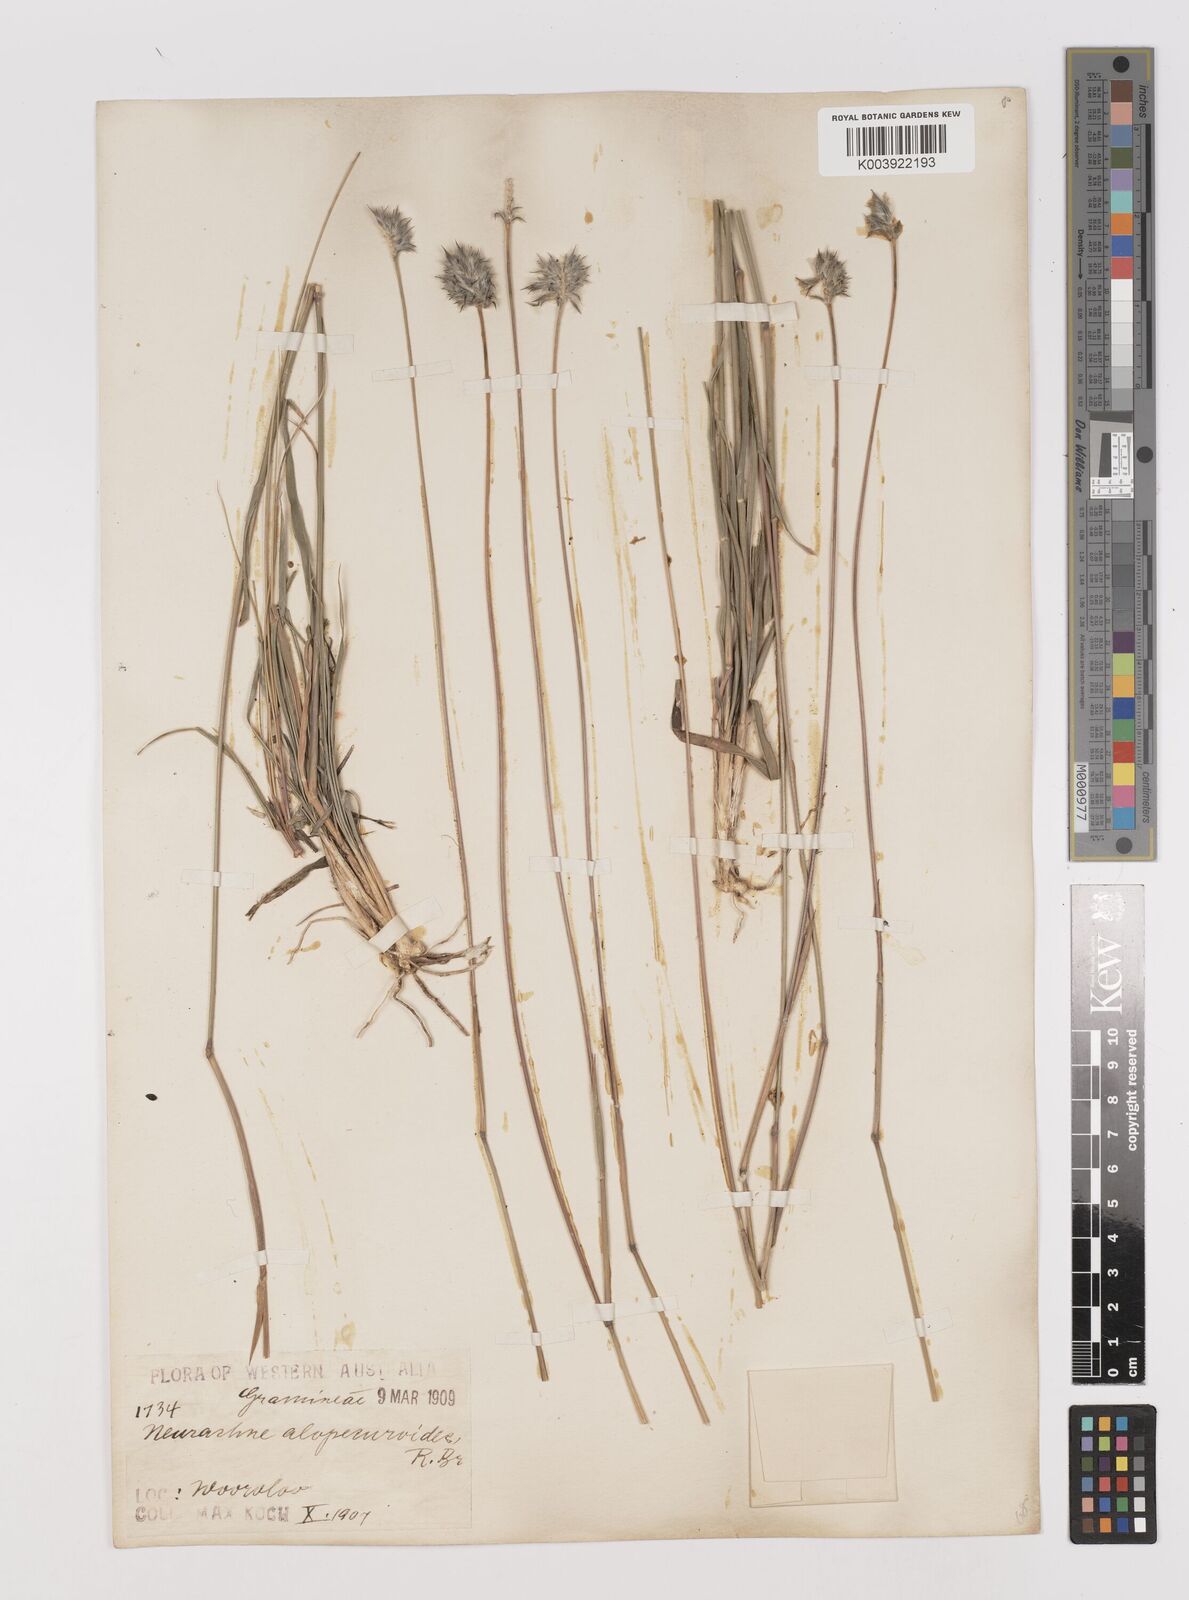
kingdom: Plantae
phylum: Tracheophyta
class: Liliopsida
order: Poales
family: Poaceae
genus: Neurachne
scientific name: Neurachne alopecuroidea
